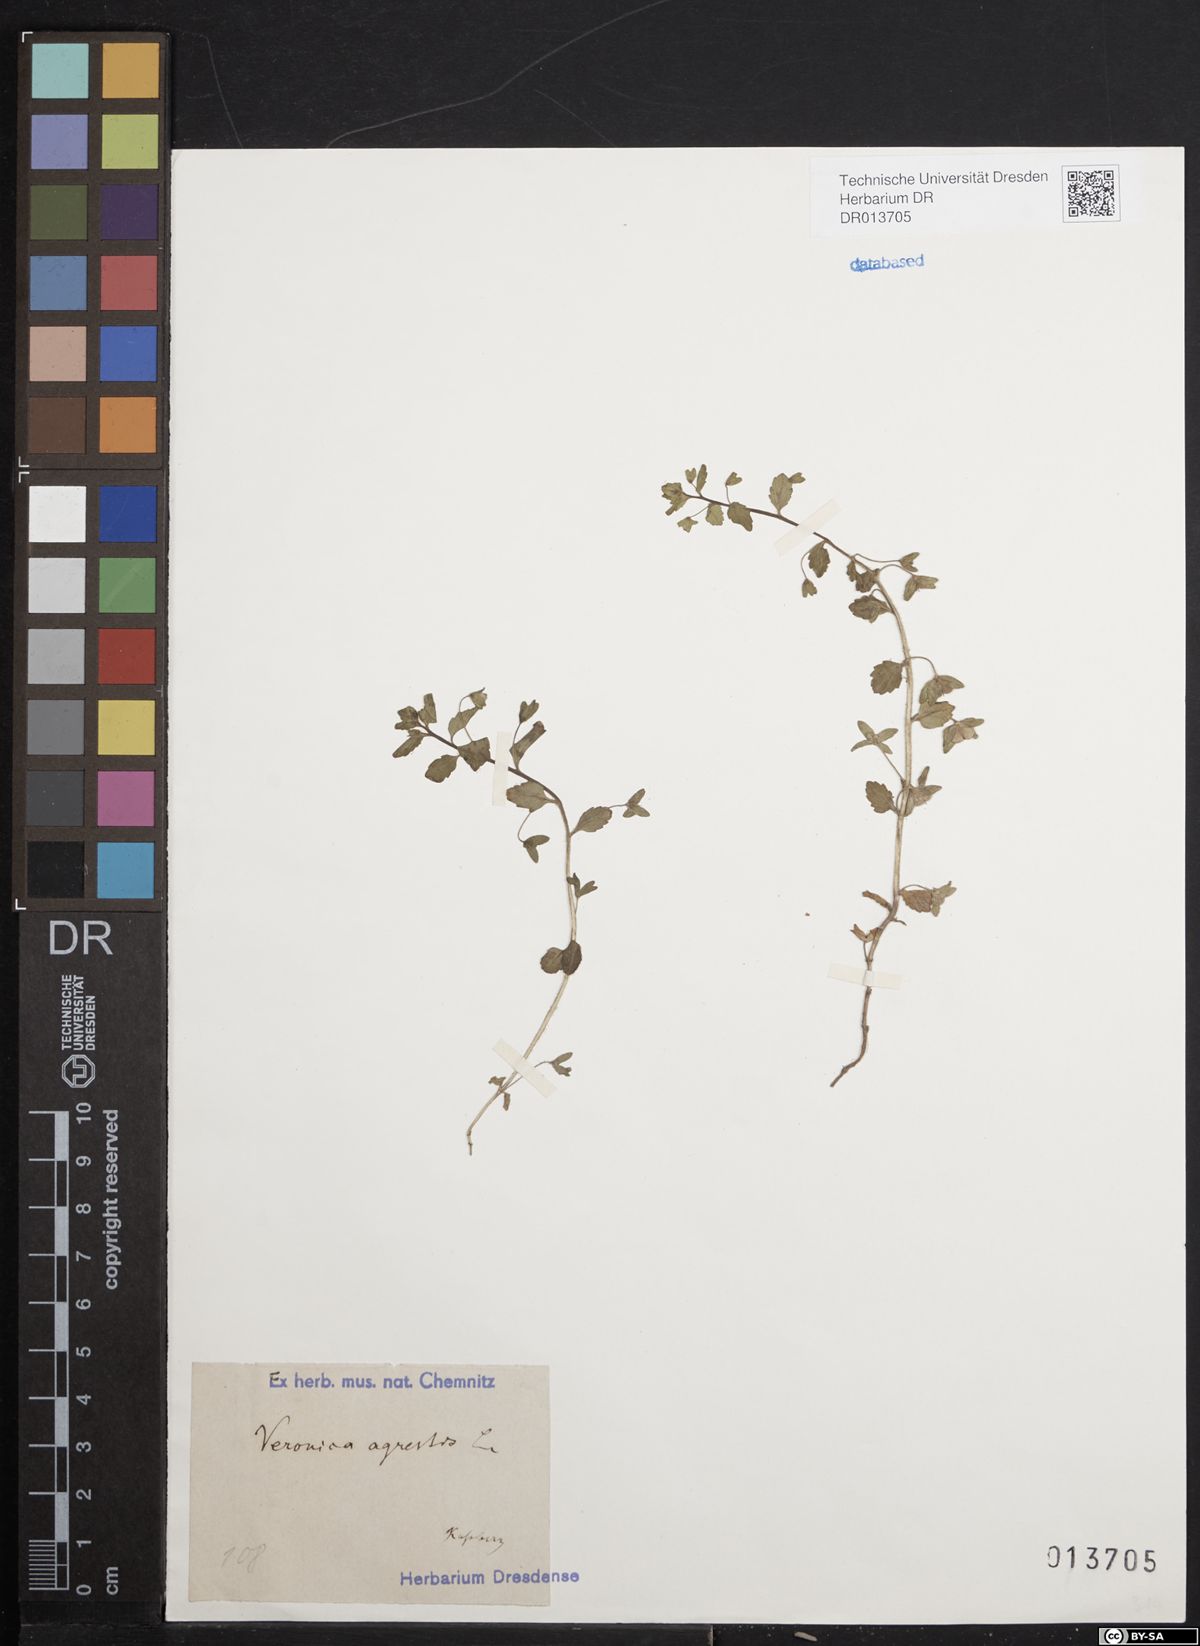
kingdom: Plantae
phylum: Tracheophyta
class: Magnoliopsida
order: Lamiales
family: Plantaginaceae
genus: Veronica
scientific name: Veronica agrestis
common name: Green field-speedwell
